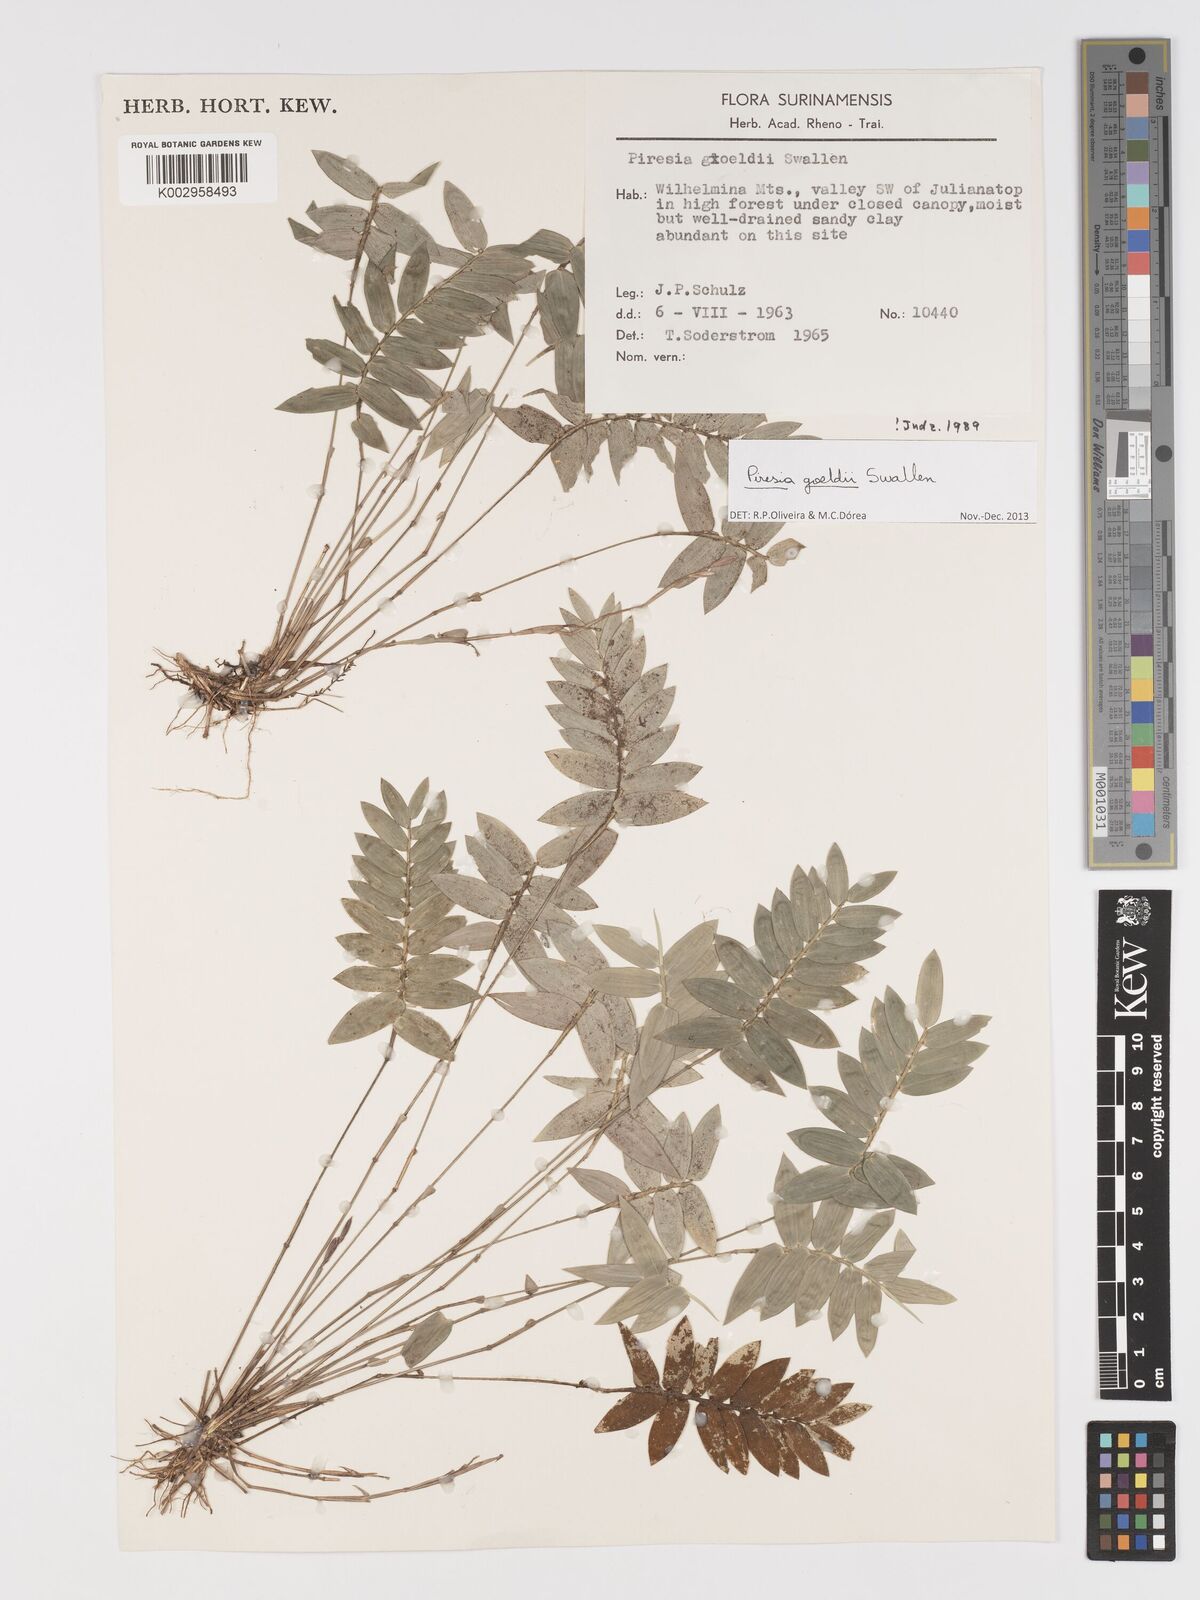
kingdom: Plantae
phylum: Tracheophyta
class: Liliopsida
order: Poales
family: Poaceae
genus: Piresia
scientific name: Piresia goeldii
